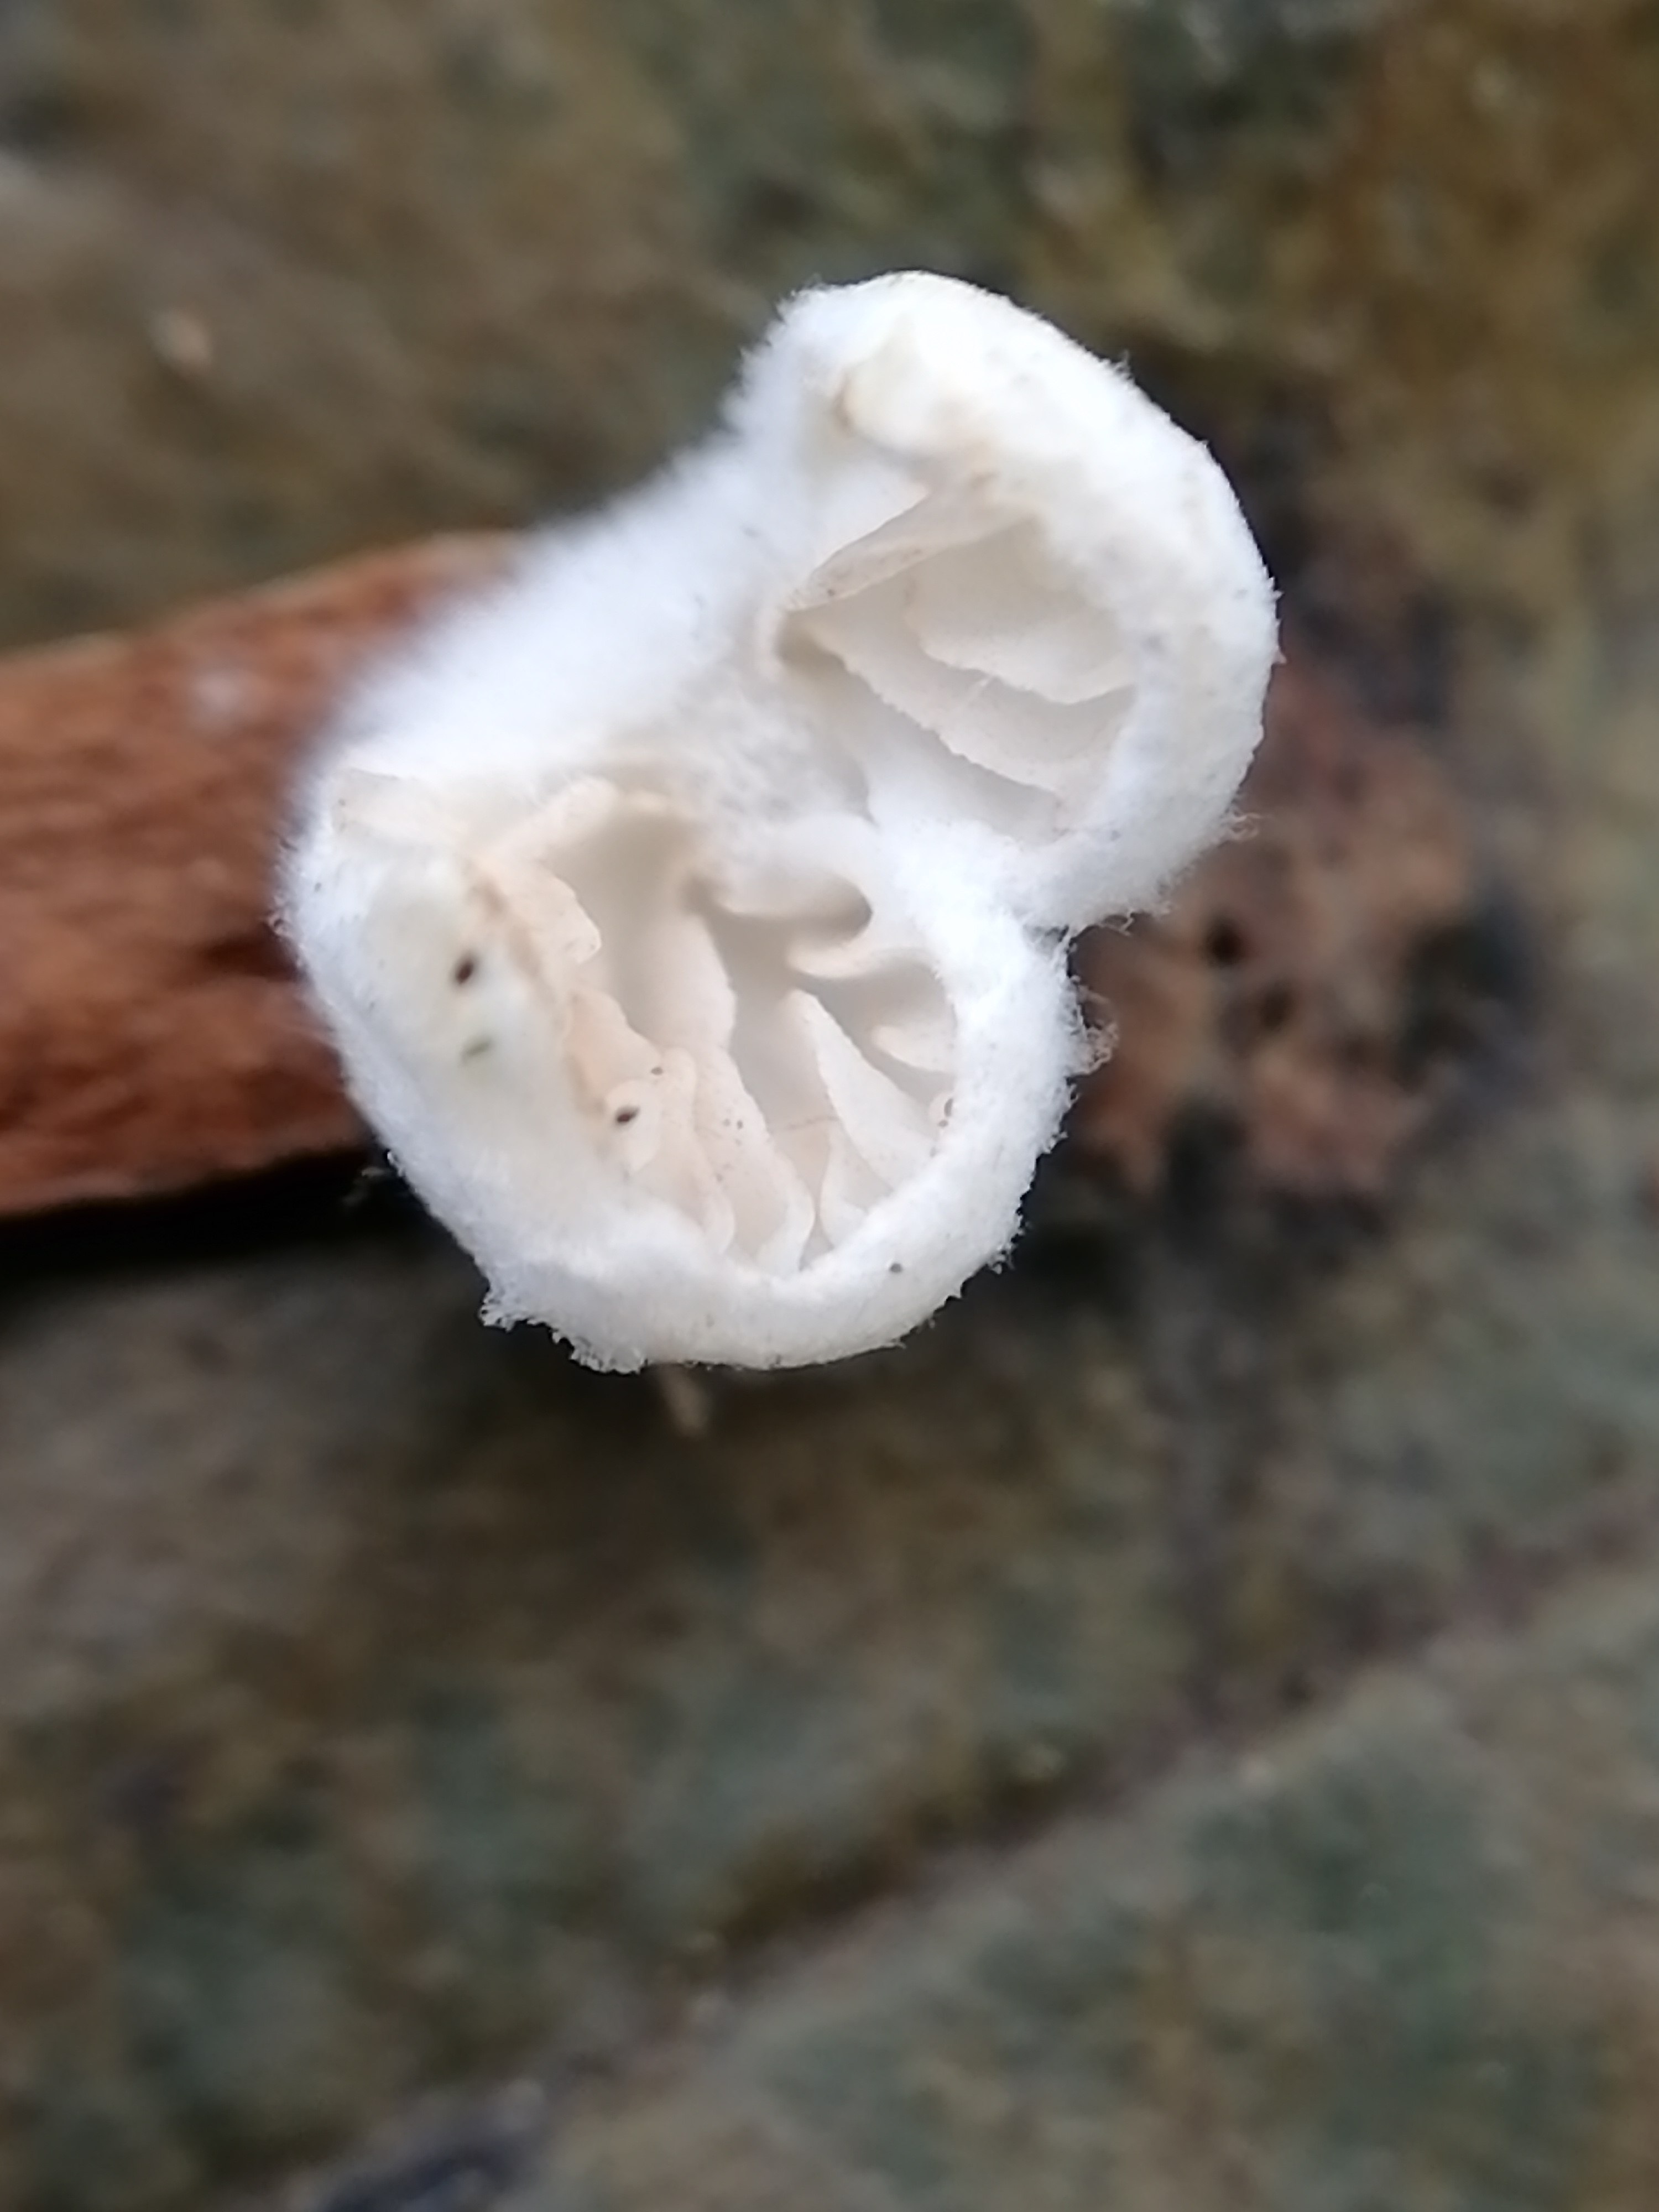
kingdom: Fungi
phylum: Basidiomycota
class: Agaricomycetes
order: Agaricales
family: Entolomataceae
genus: Clitopilus
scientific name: Clitopilus hobsonii
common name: Miller's oysterling
